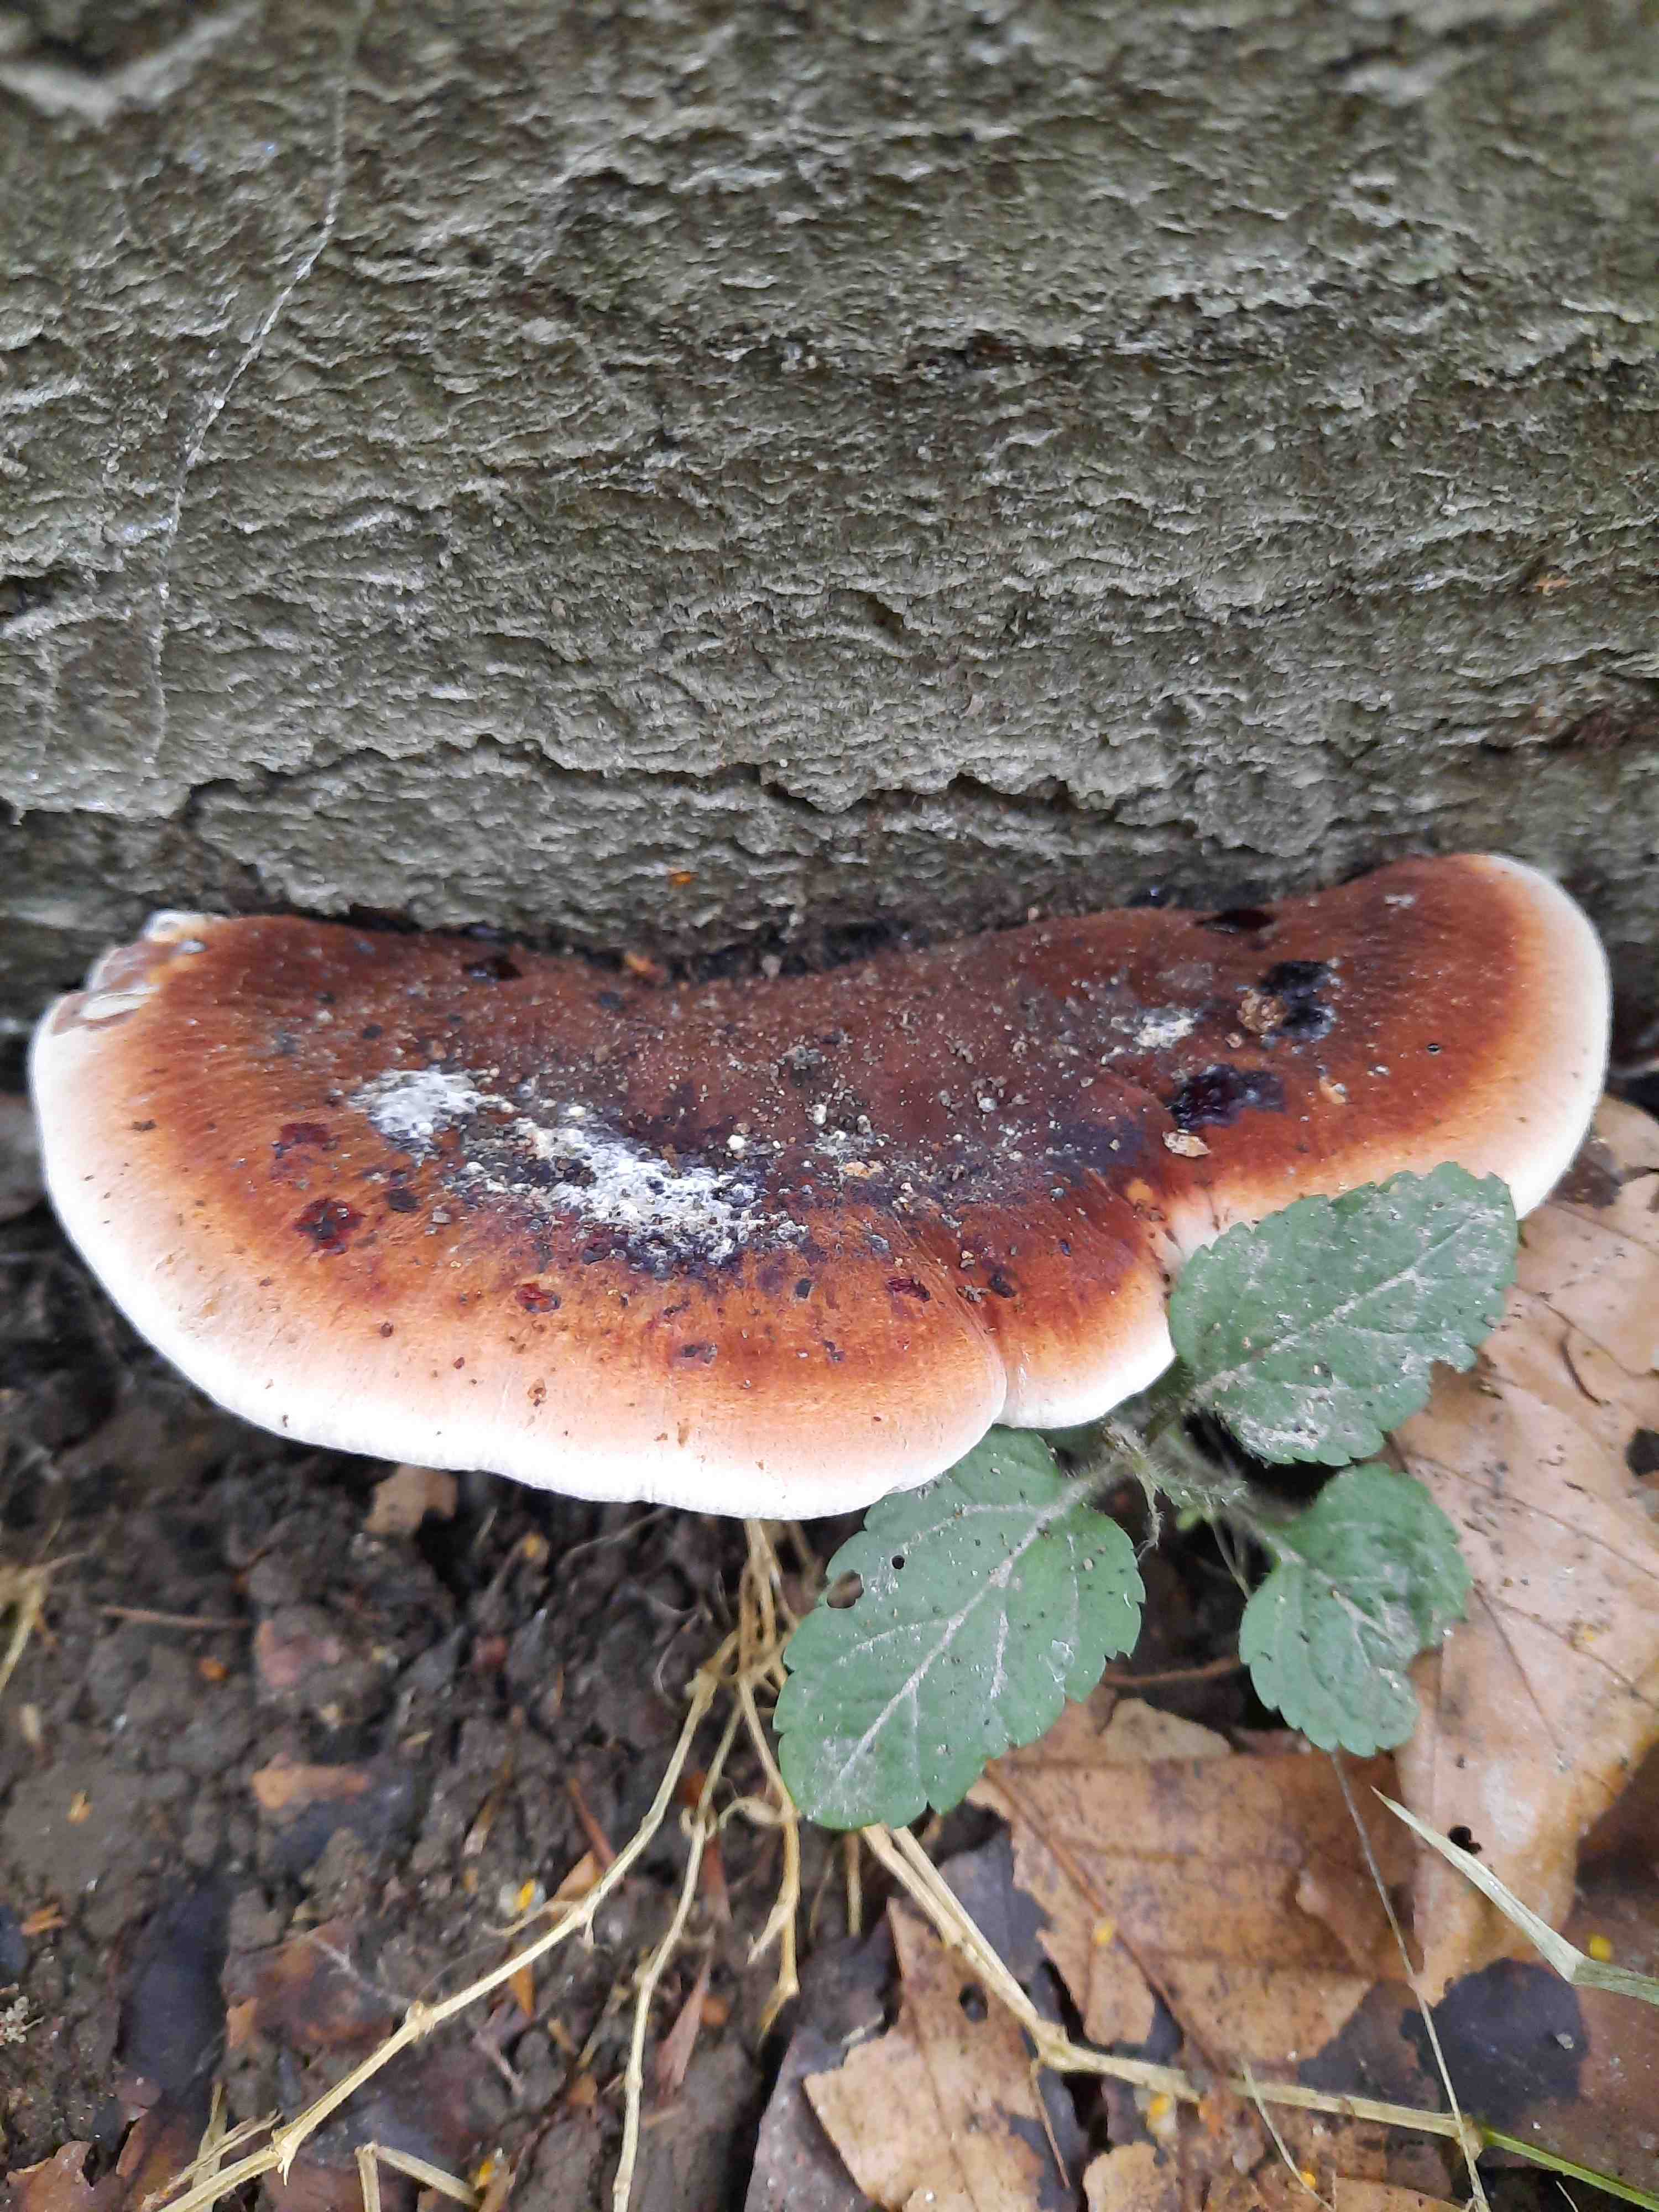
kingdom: Fungi
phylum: Basidiomycota
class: Agaricomycetes
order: Polyporales
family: Ischnodermataceae
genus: Ischnoderma
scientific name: Ischnoderma resinosum
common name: løv-tjæreporesvamp
